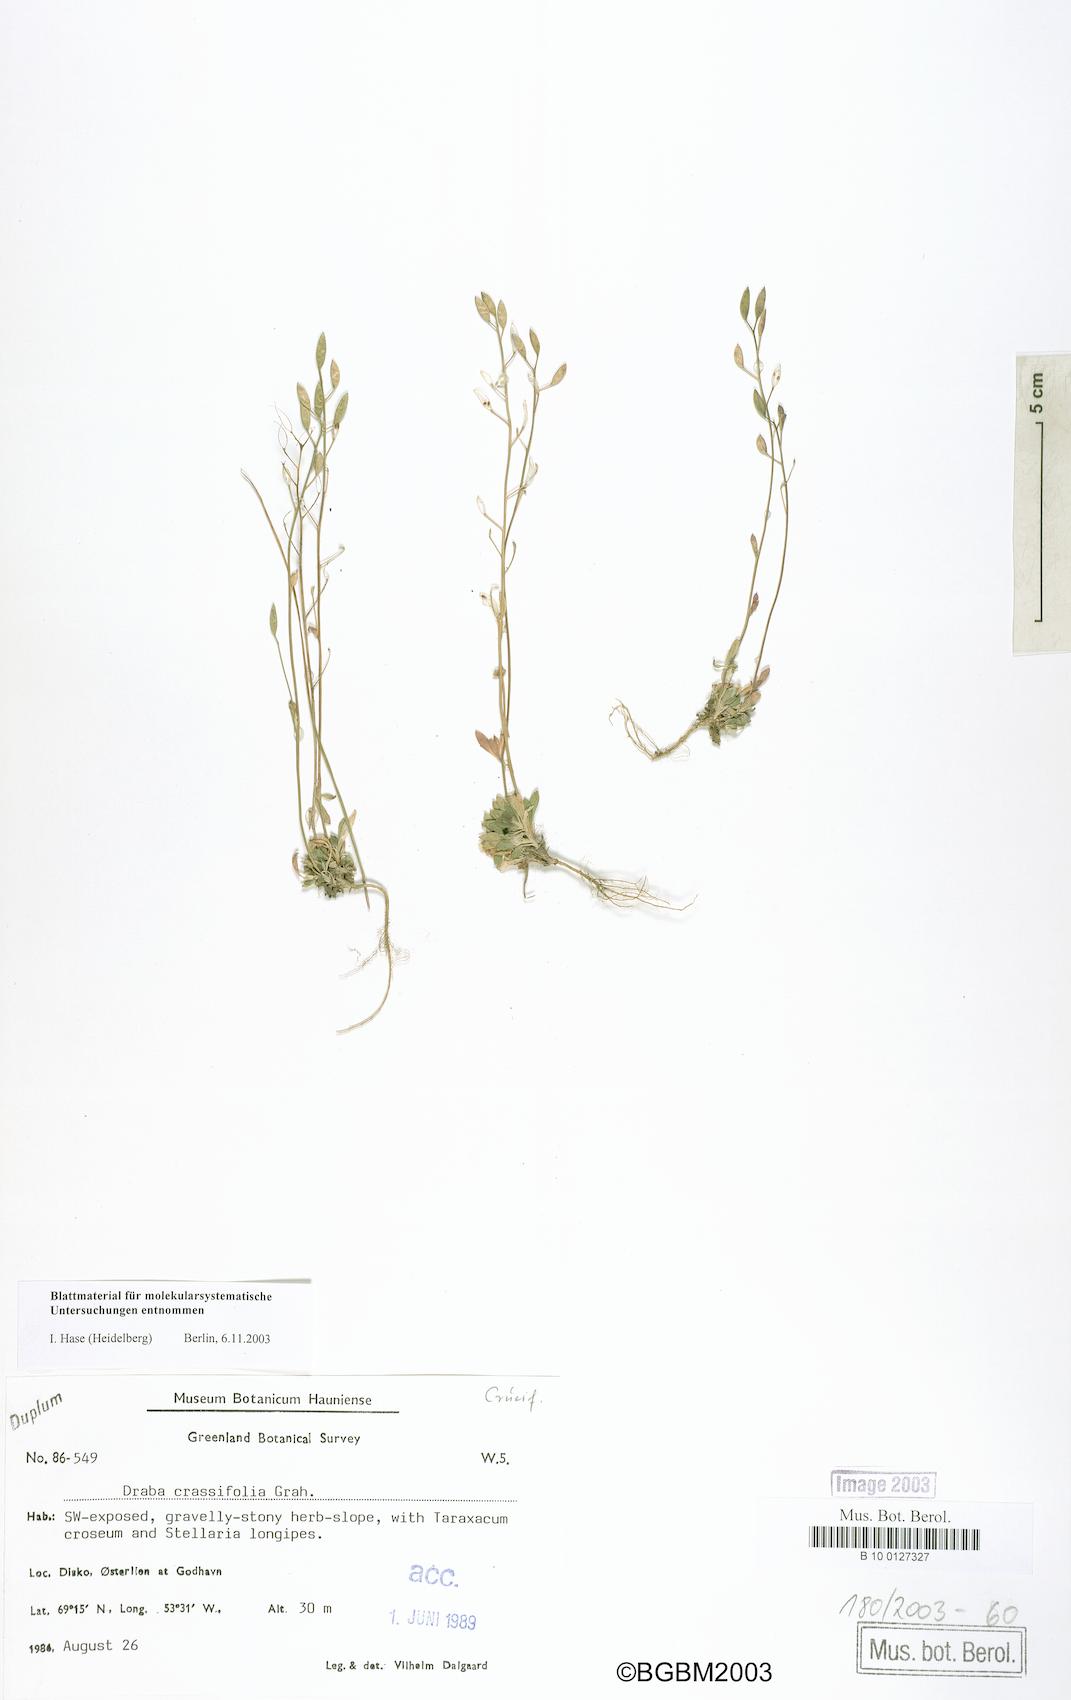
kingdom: Plantae
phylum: Tracheophyta
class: Magnoliopsida
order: Brassicales
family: Brassicaceae
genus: Draba
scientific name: Draba crassifolia
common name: Rocky mountain draba
